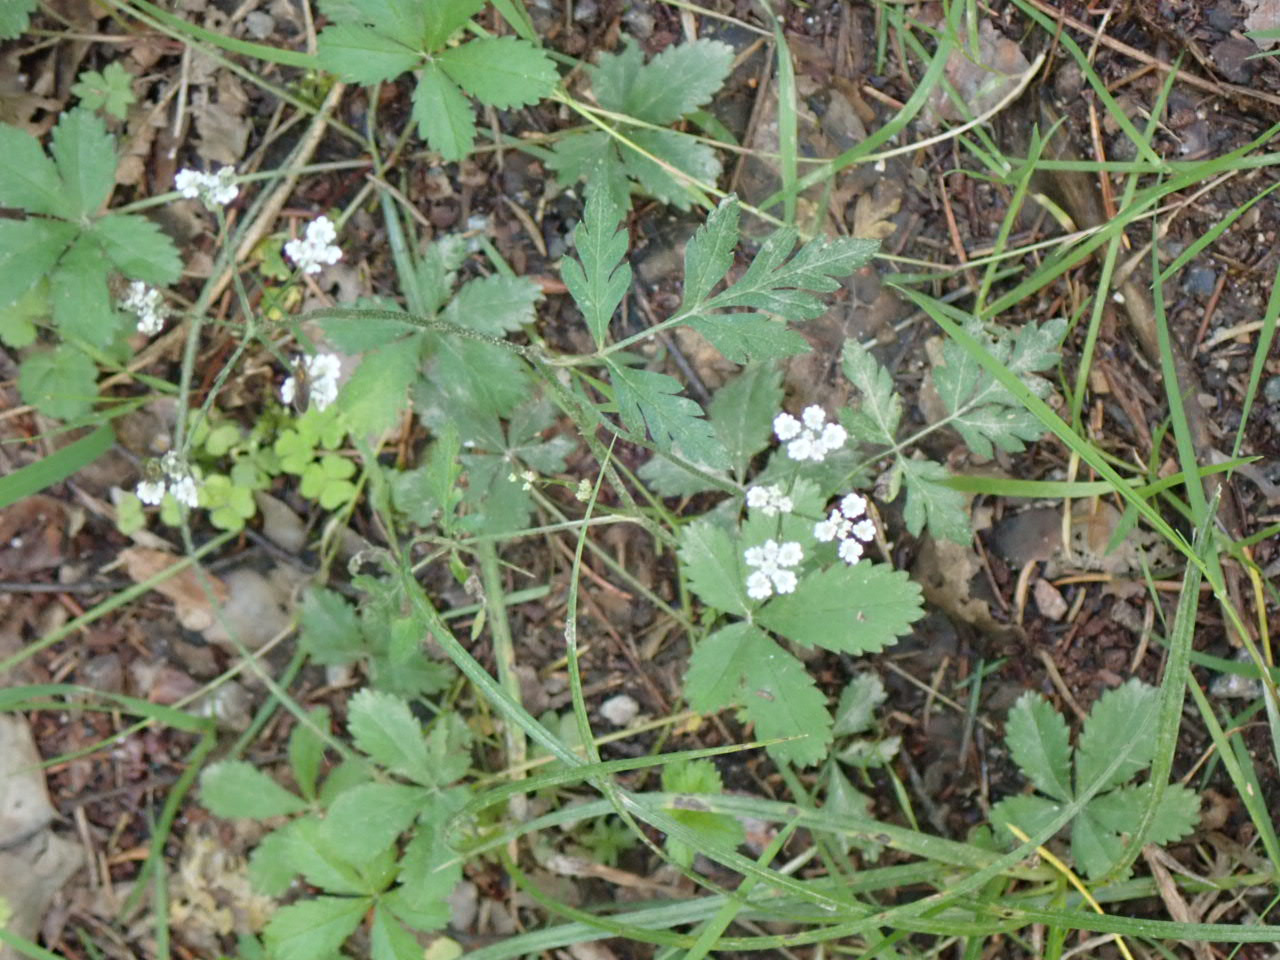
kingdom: Plantae
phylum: Tracheophyta
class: Magnoliopsida
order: Apiales
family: Apiaceae
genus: Torilis
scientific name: Torilis japonica
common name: Hvas randfrø
